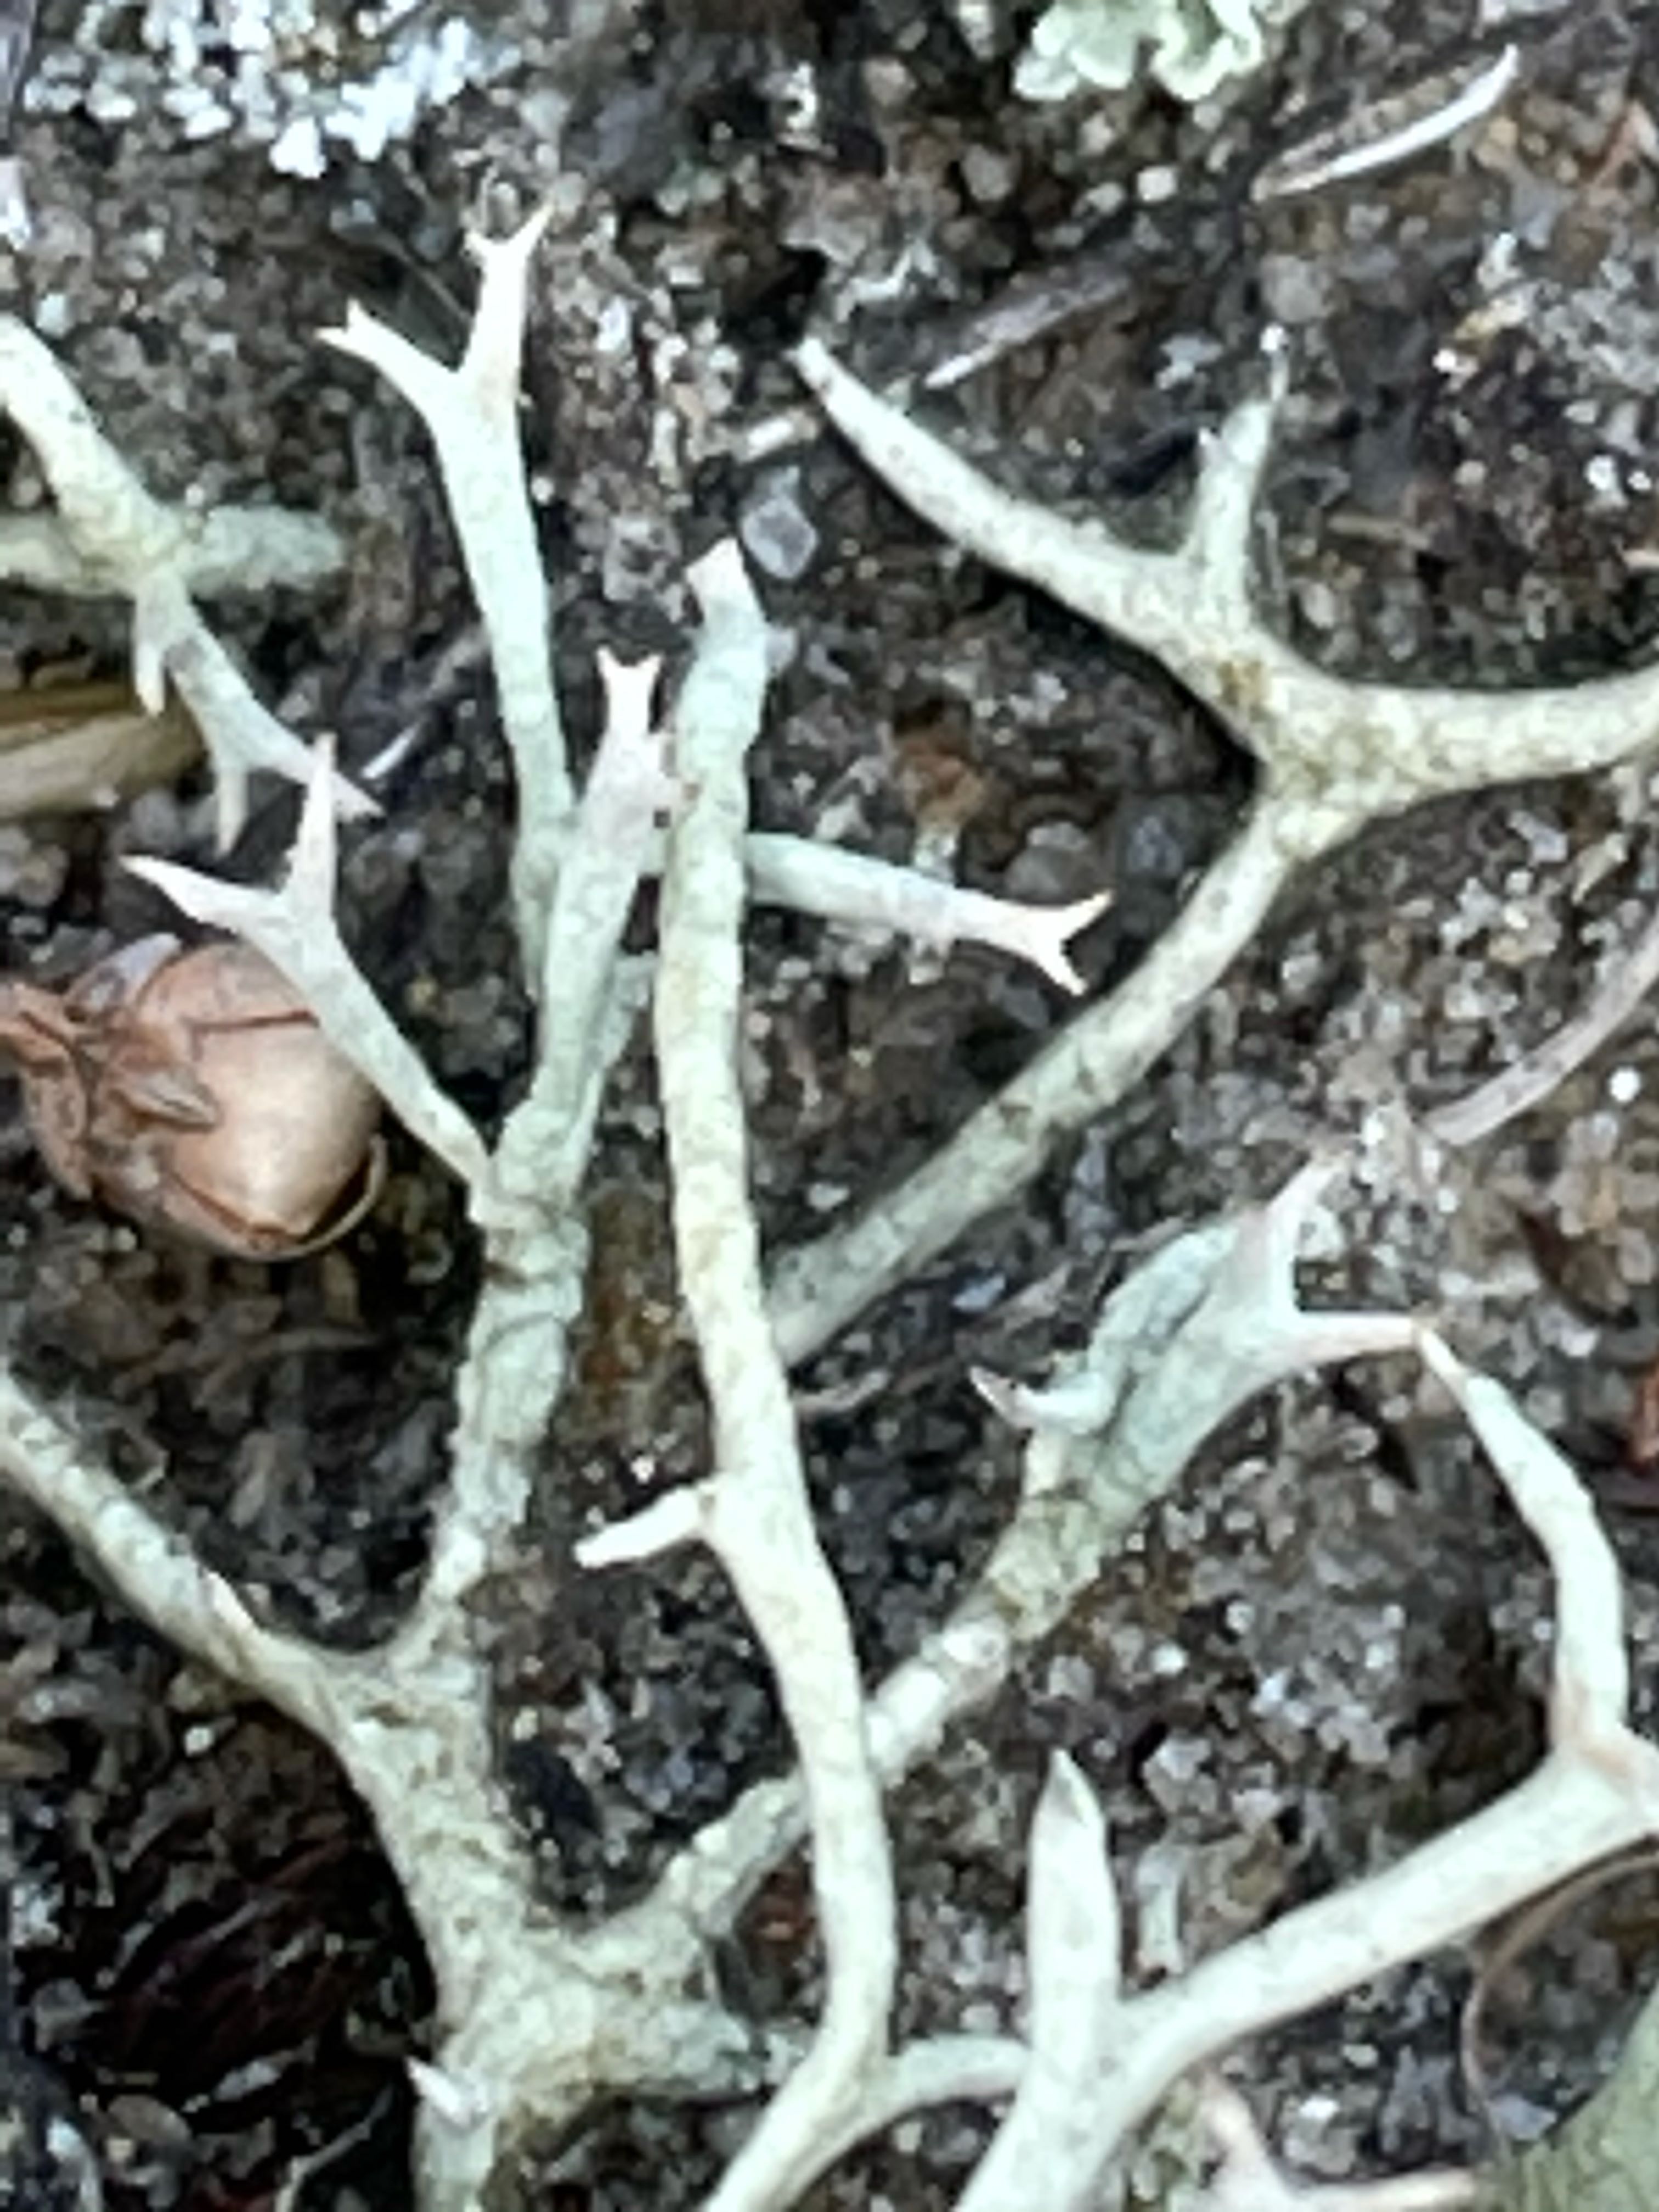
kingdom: Fungi
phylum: Ascomycota
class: Lecanoromycetes
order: Lecanorales
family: Cladoniaceae
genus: Cladonia
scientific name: Cladonia zopfii
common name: klit-bægerlav
